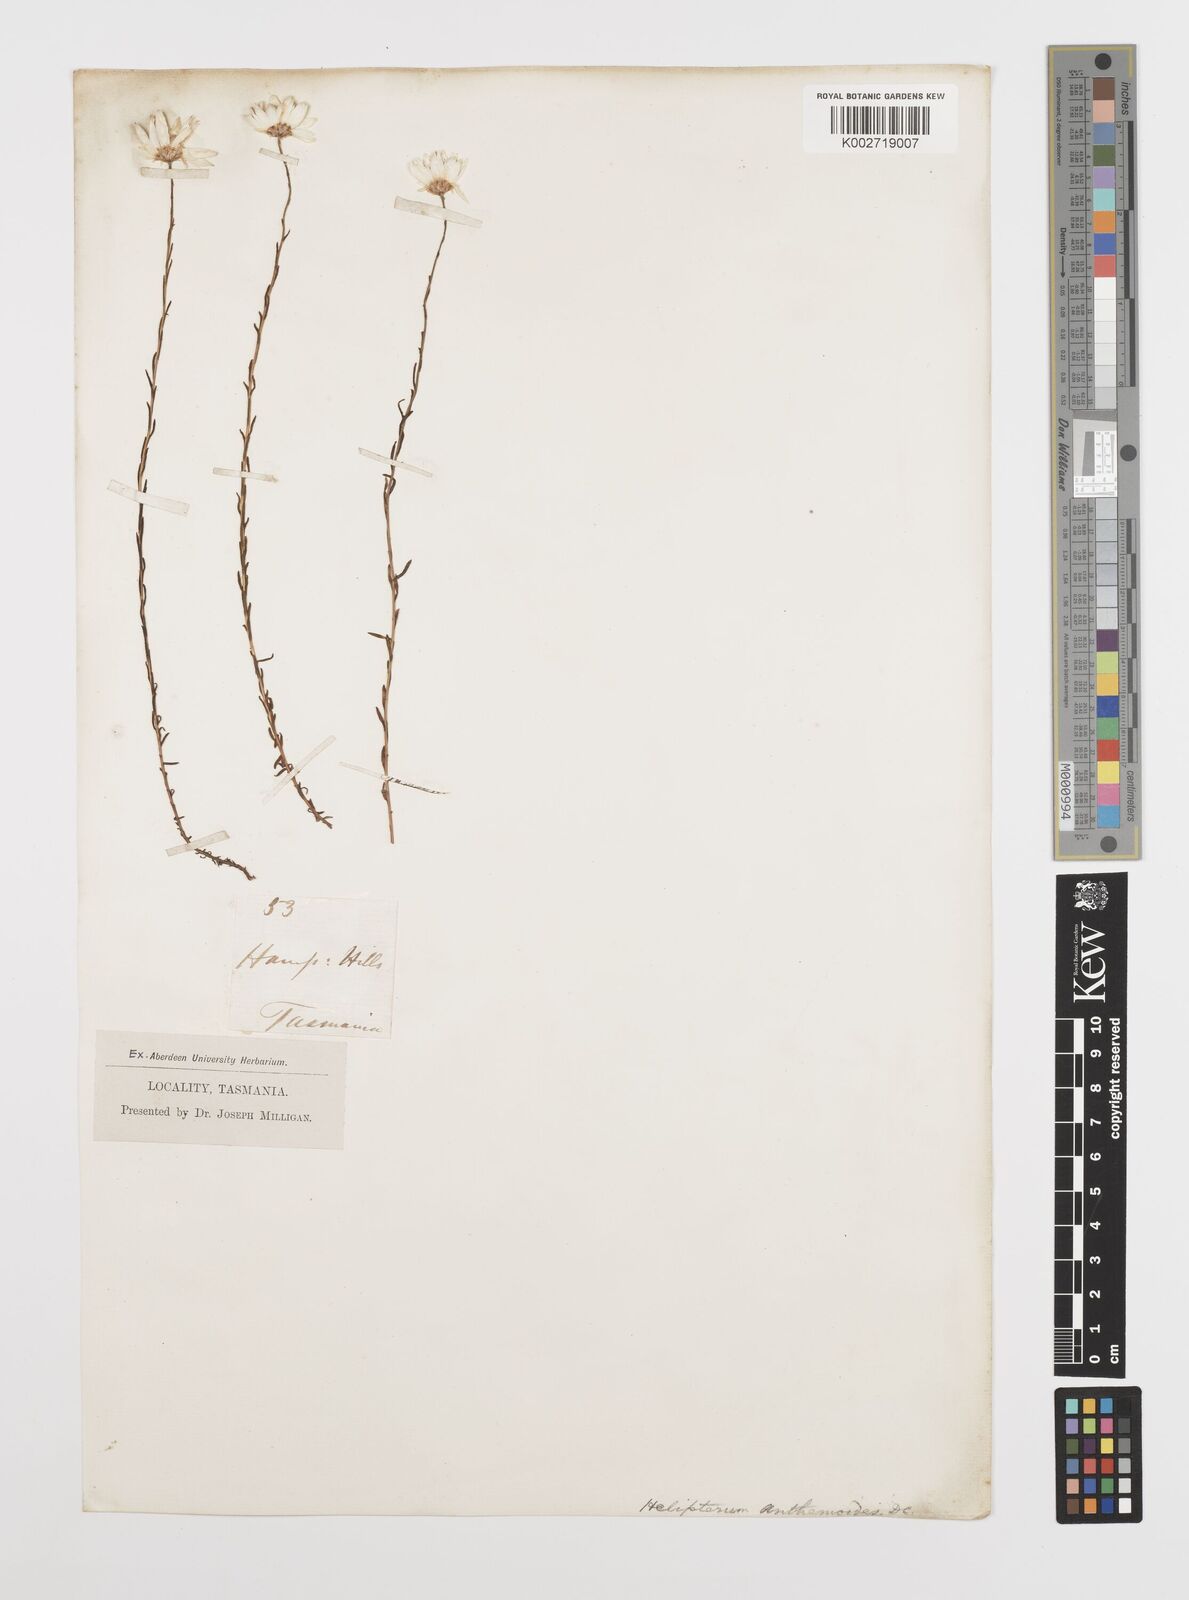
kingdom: Plantae
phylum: Tracheophyta
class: Magnoliopsida
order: Asterales
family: Asteraceae
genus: Rhodanthe
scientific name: Rhodanthe anthemoides
